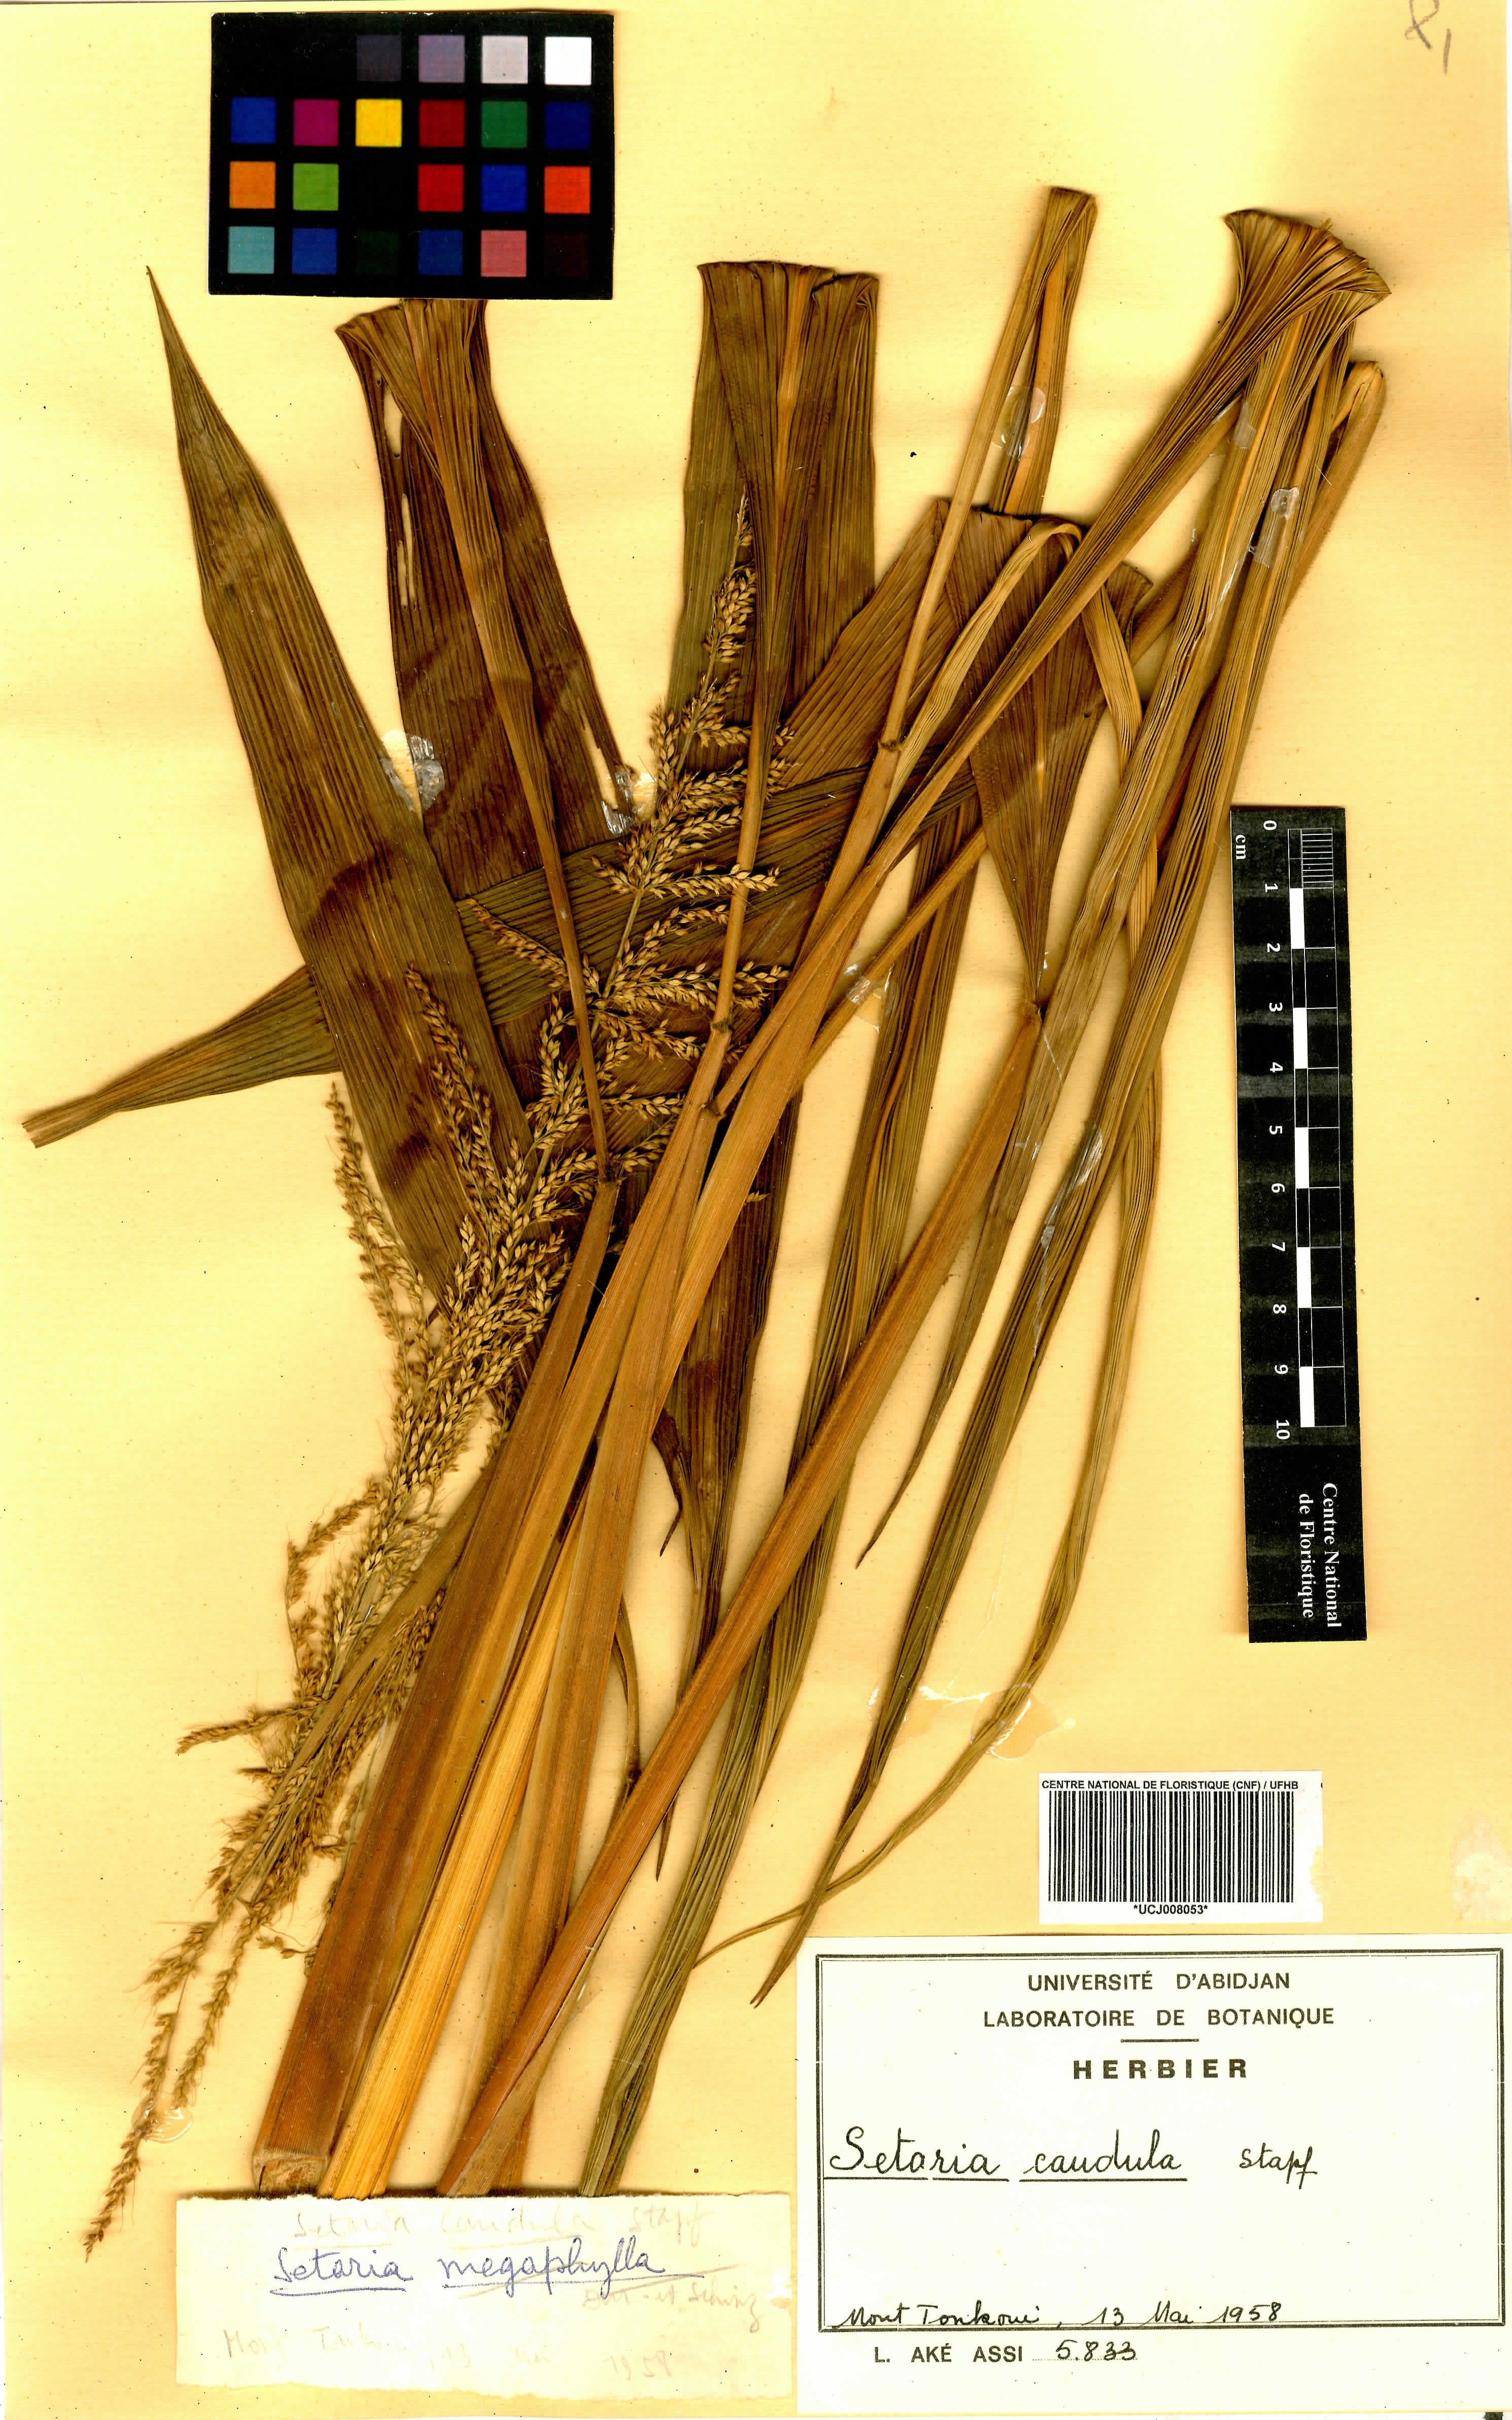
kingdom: Plantae
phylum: Tracheophyta
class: Liliopsida
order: Poales
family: Poaceae
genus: Setaria
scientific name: Setaria megaphylla
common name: Bigleaf bristlegrass
